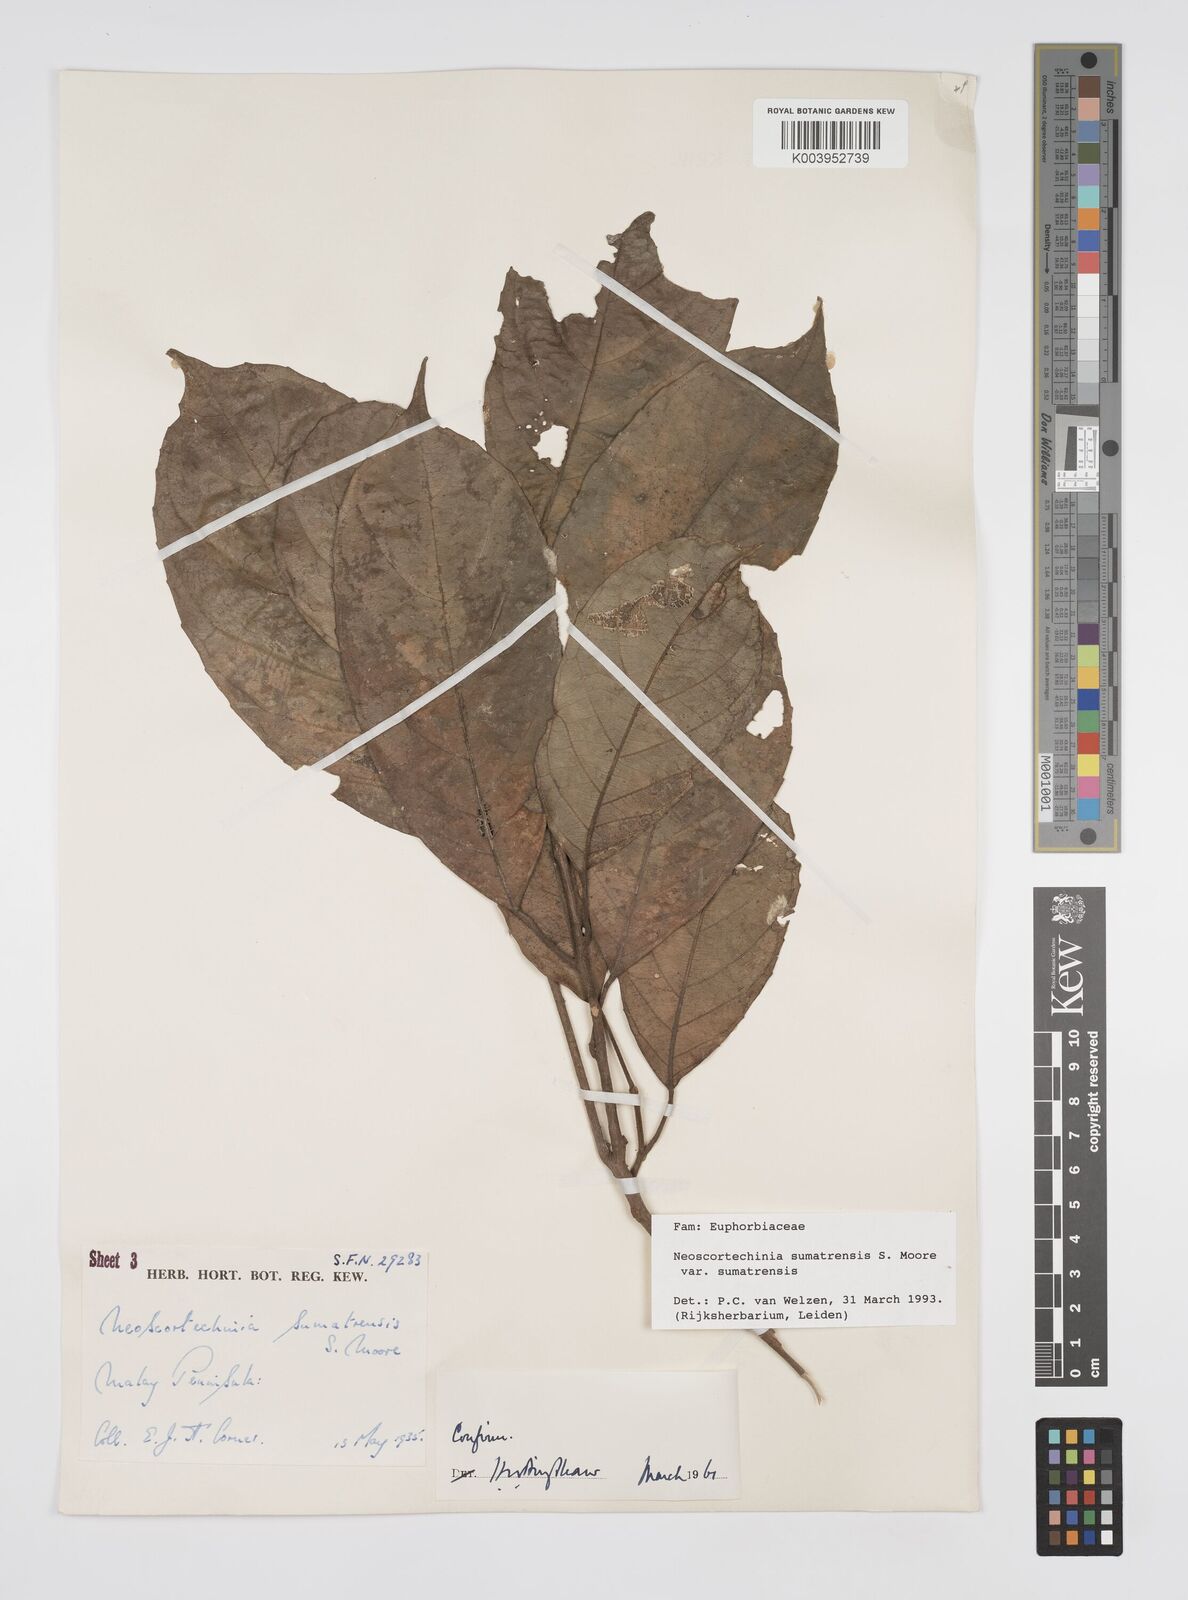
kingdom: Plantae
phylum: Tracheophyta
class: Magnoliopsida
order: Malpighiales
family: Euphorbiaceae
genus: Neoscortechinia
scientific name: Neoscortechinia sumatrensis
